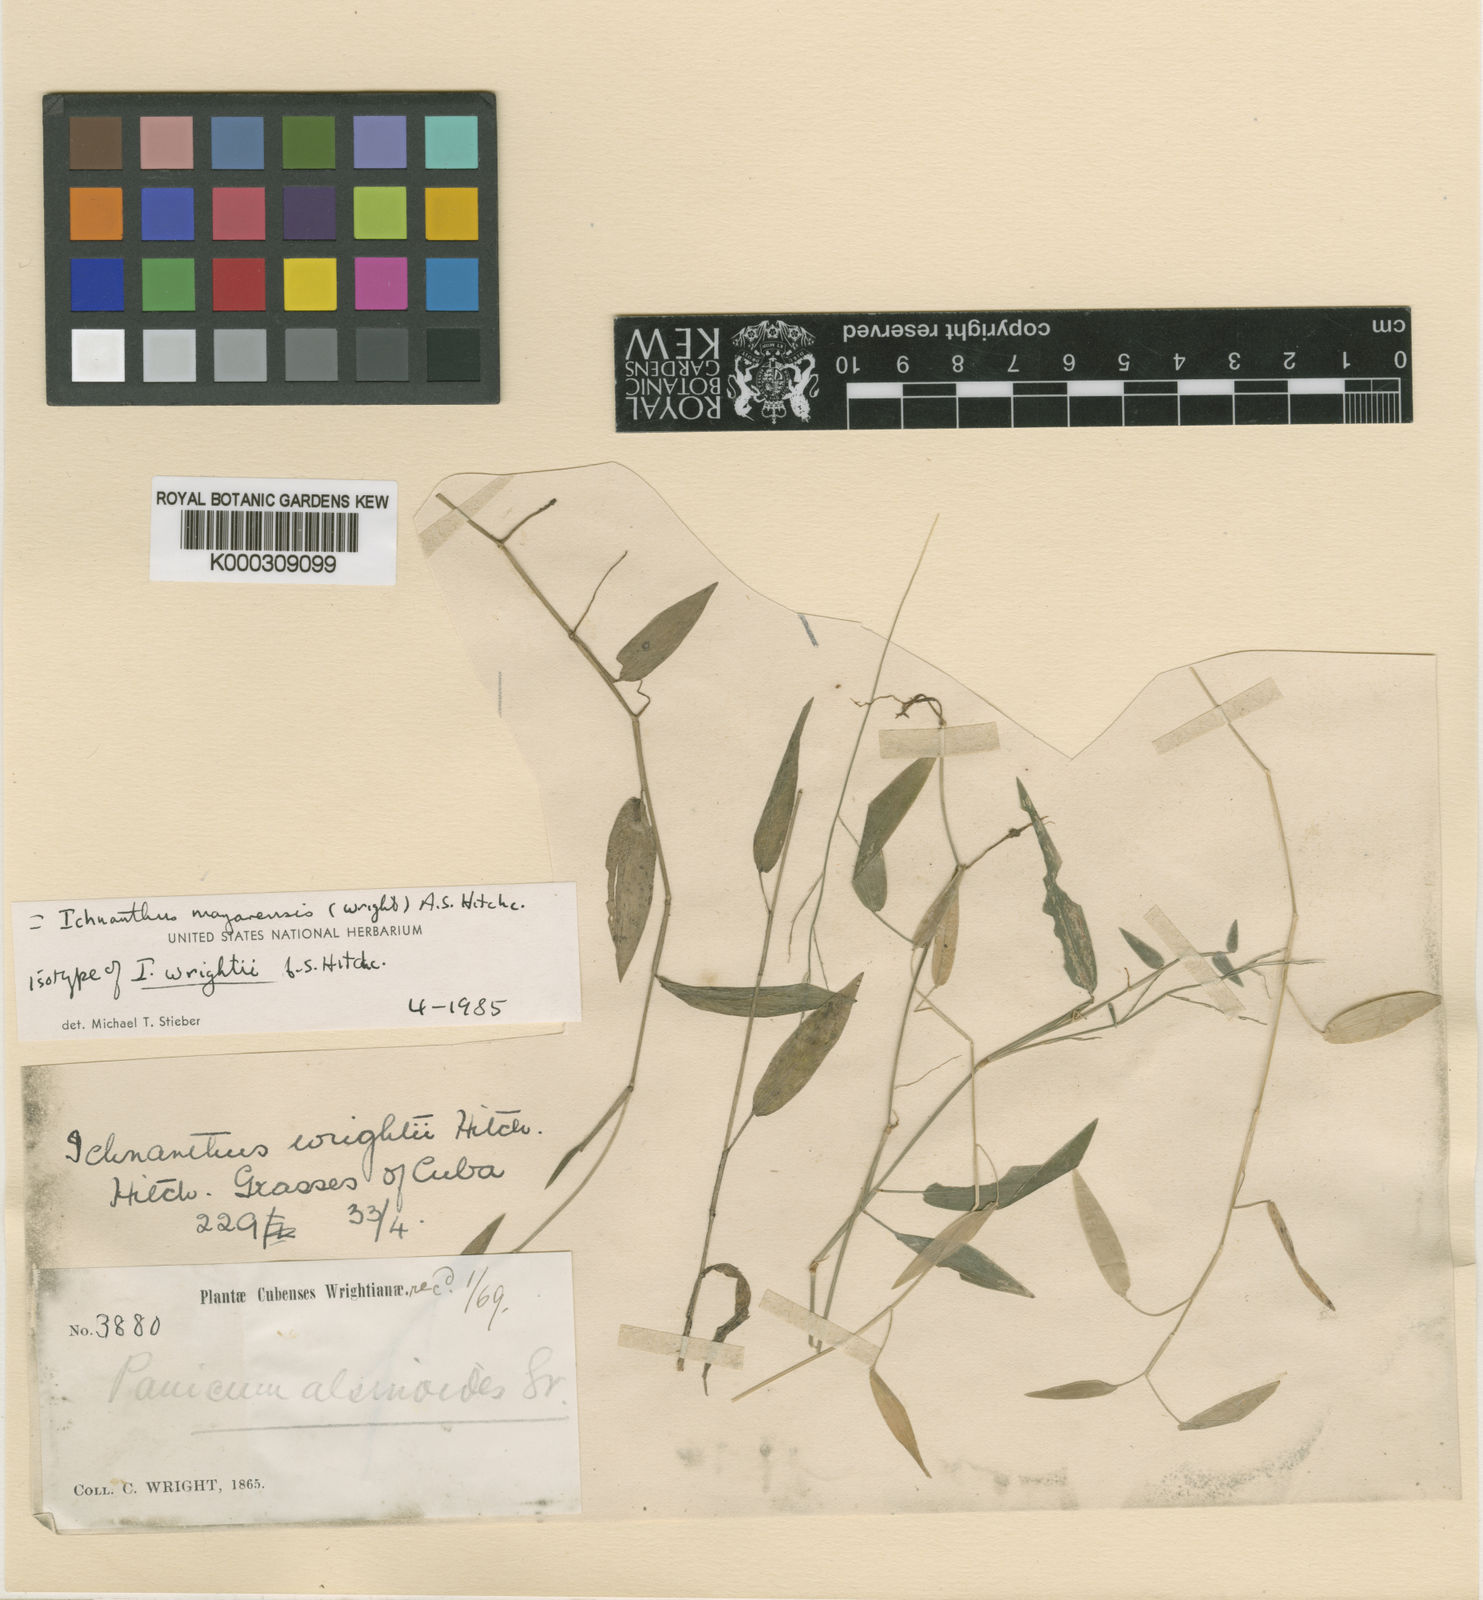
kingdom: Plantae
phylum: Tracheophyta
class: Liliopsida
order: Poales
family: Poaceae
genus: Oedochloa
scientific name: Oedochloa mayarensis
